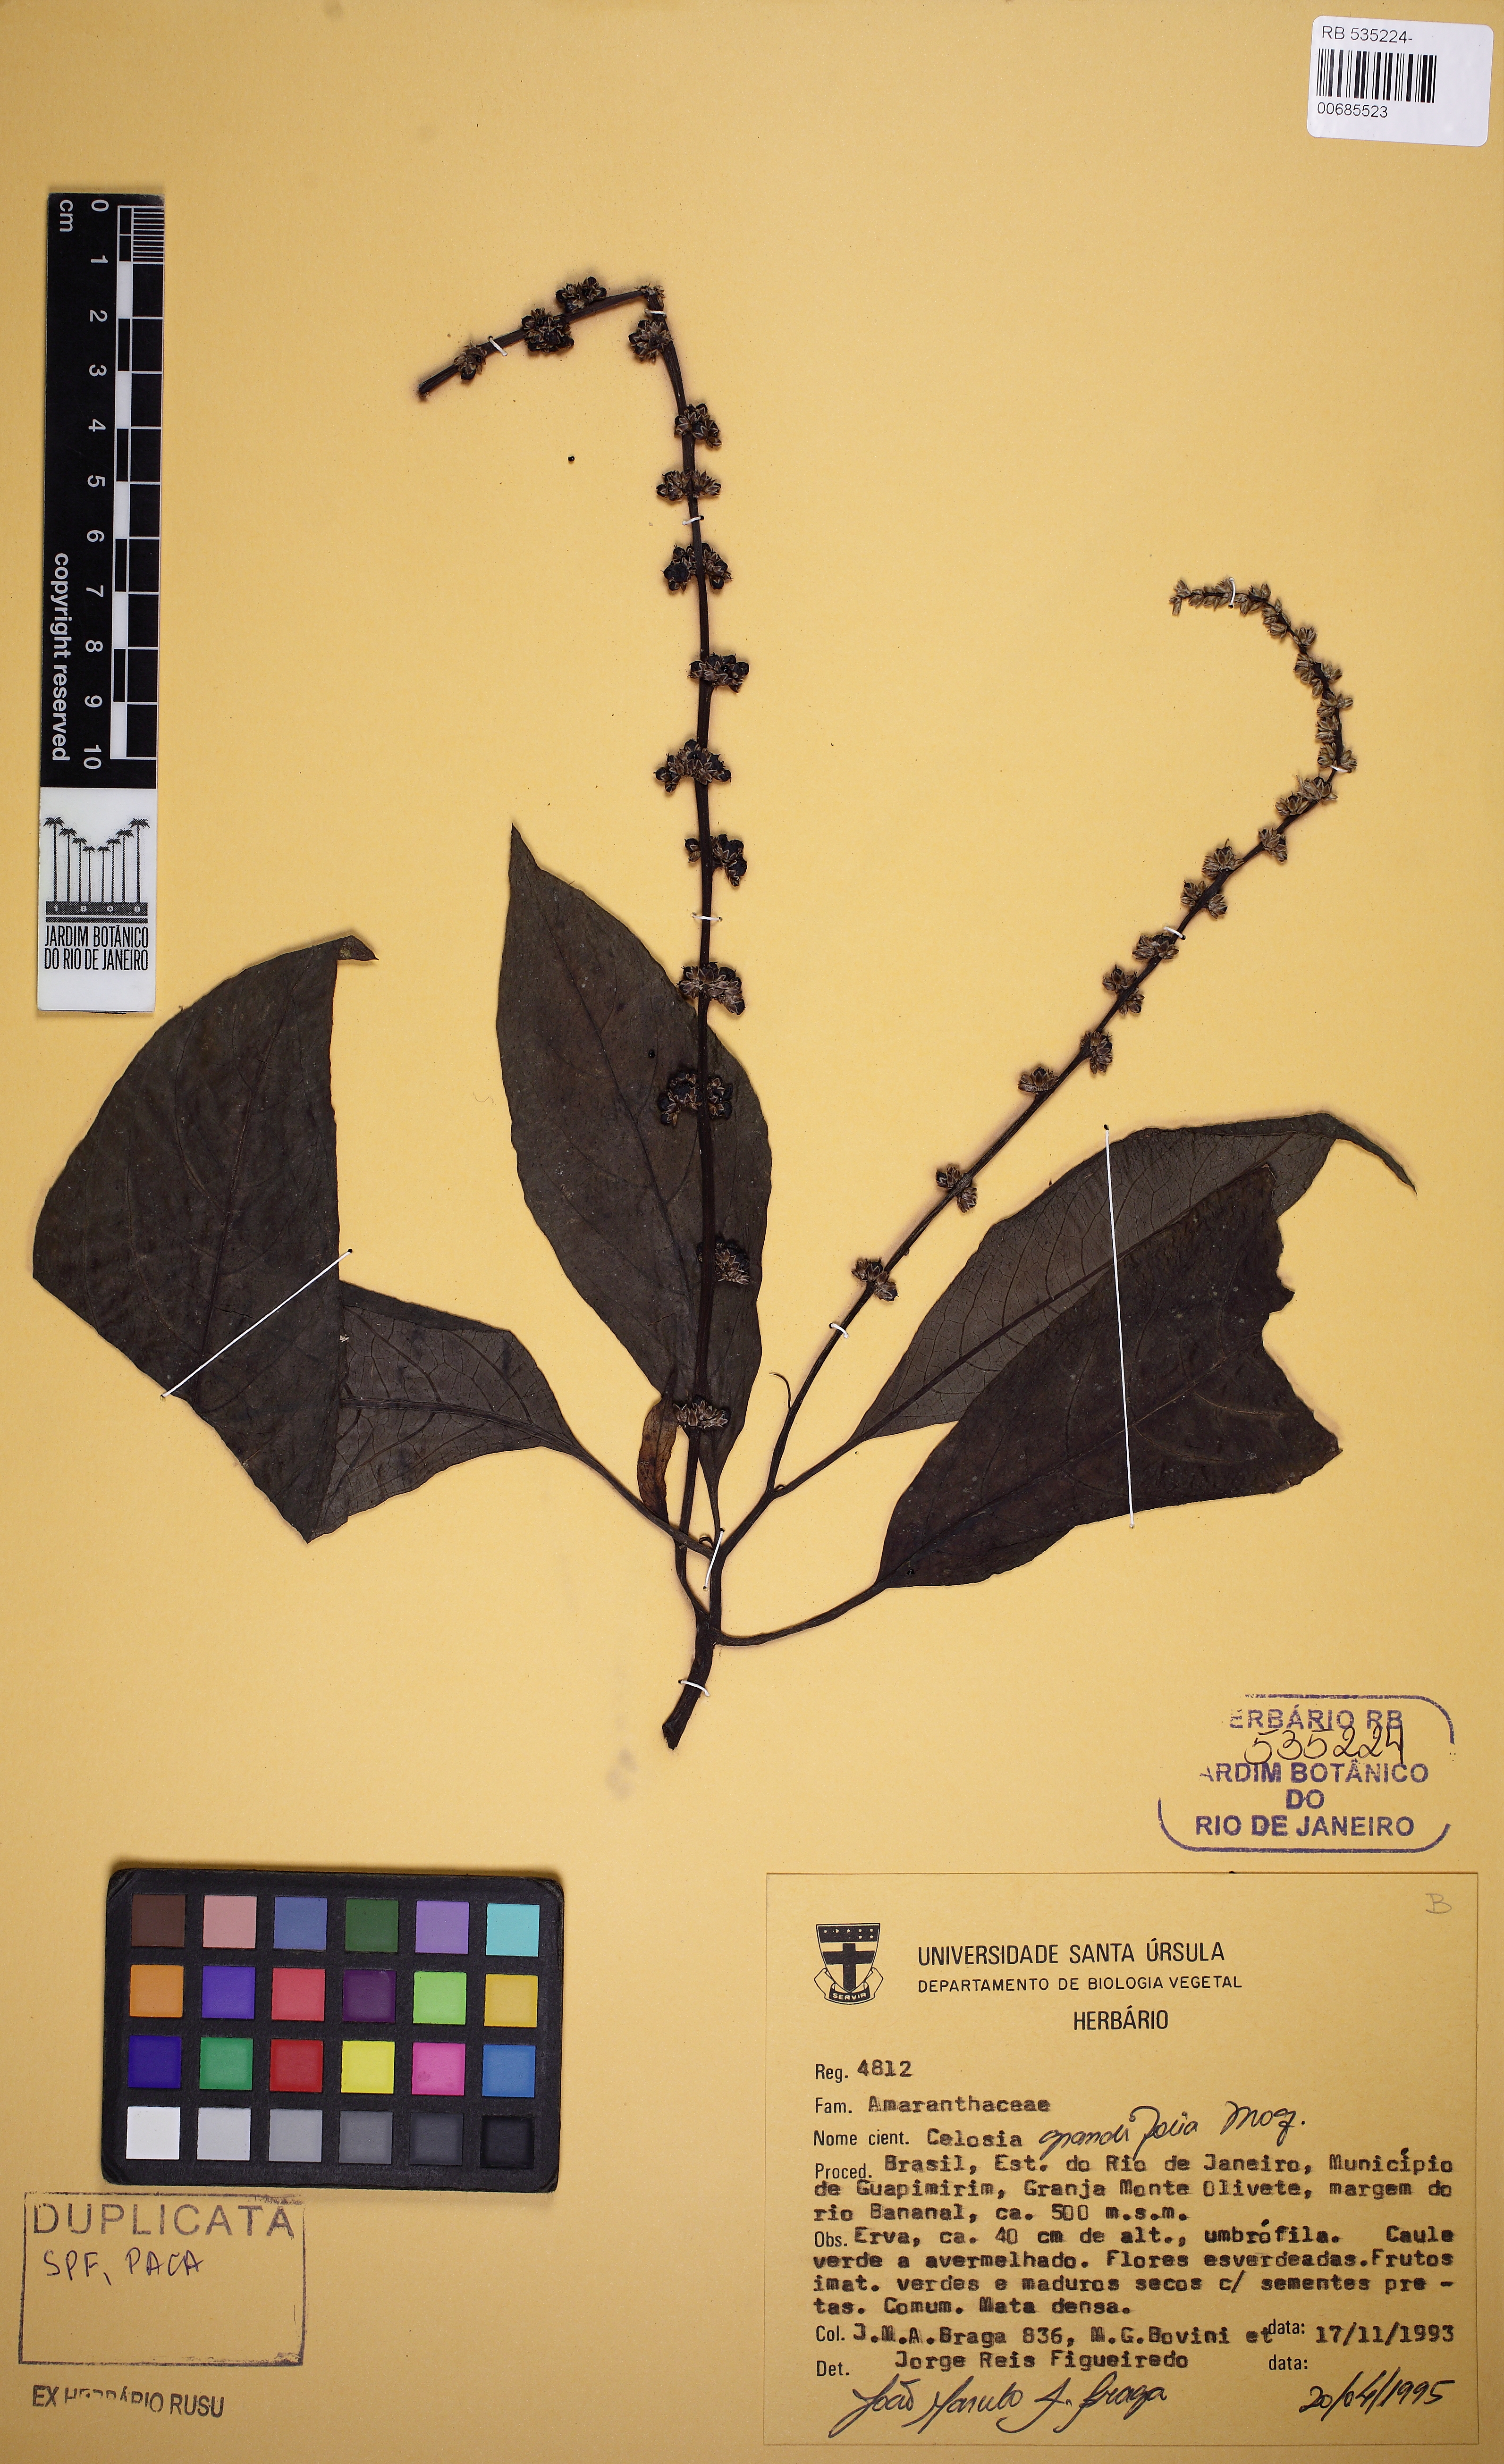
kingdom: Plantae
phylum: Tracheophyta
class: Magnoliopsida
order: Caryophyllales
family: Amaranthaceae
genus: Celosia
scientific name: Celosia grandifolia
